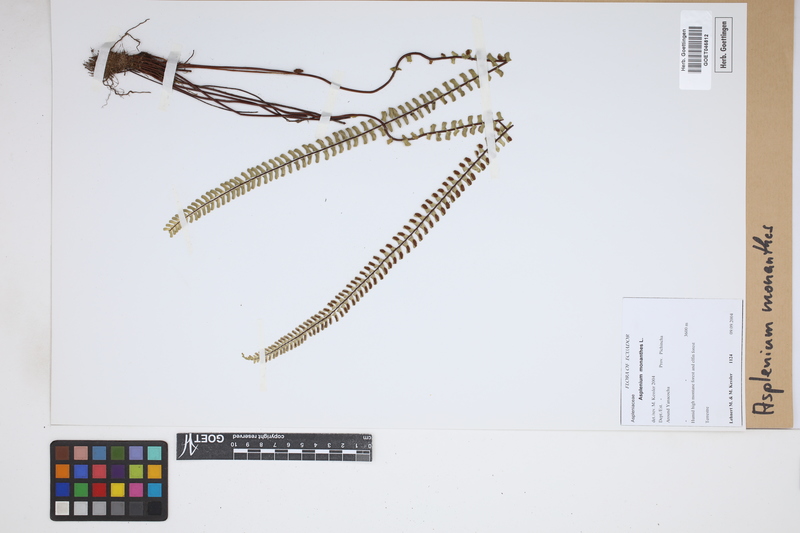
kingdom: Plantae
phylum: Tracheophyta
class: Polypodiopsida
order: Polypodiales
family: Aspleniaceae
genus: Asplenium
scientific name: Asplenium monanthes
